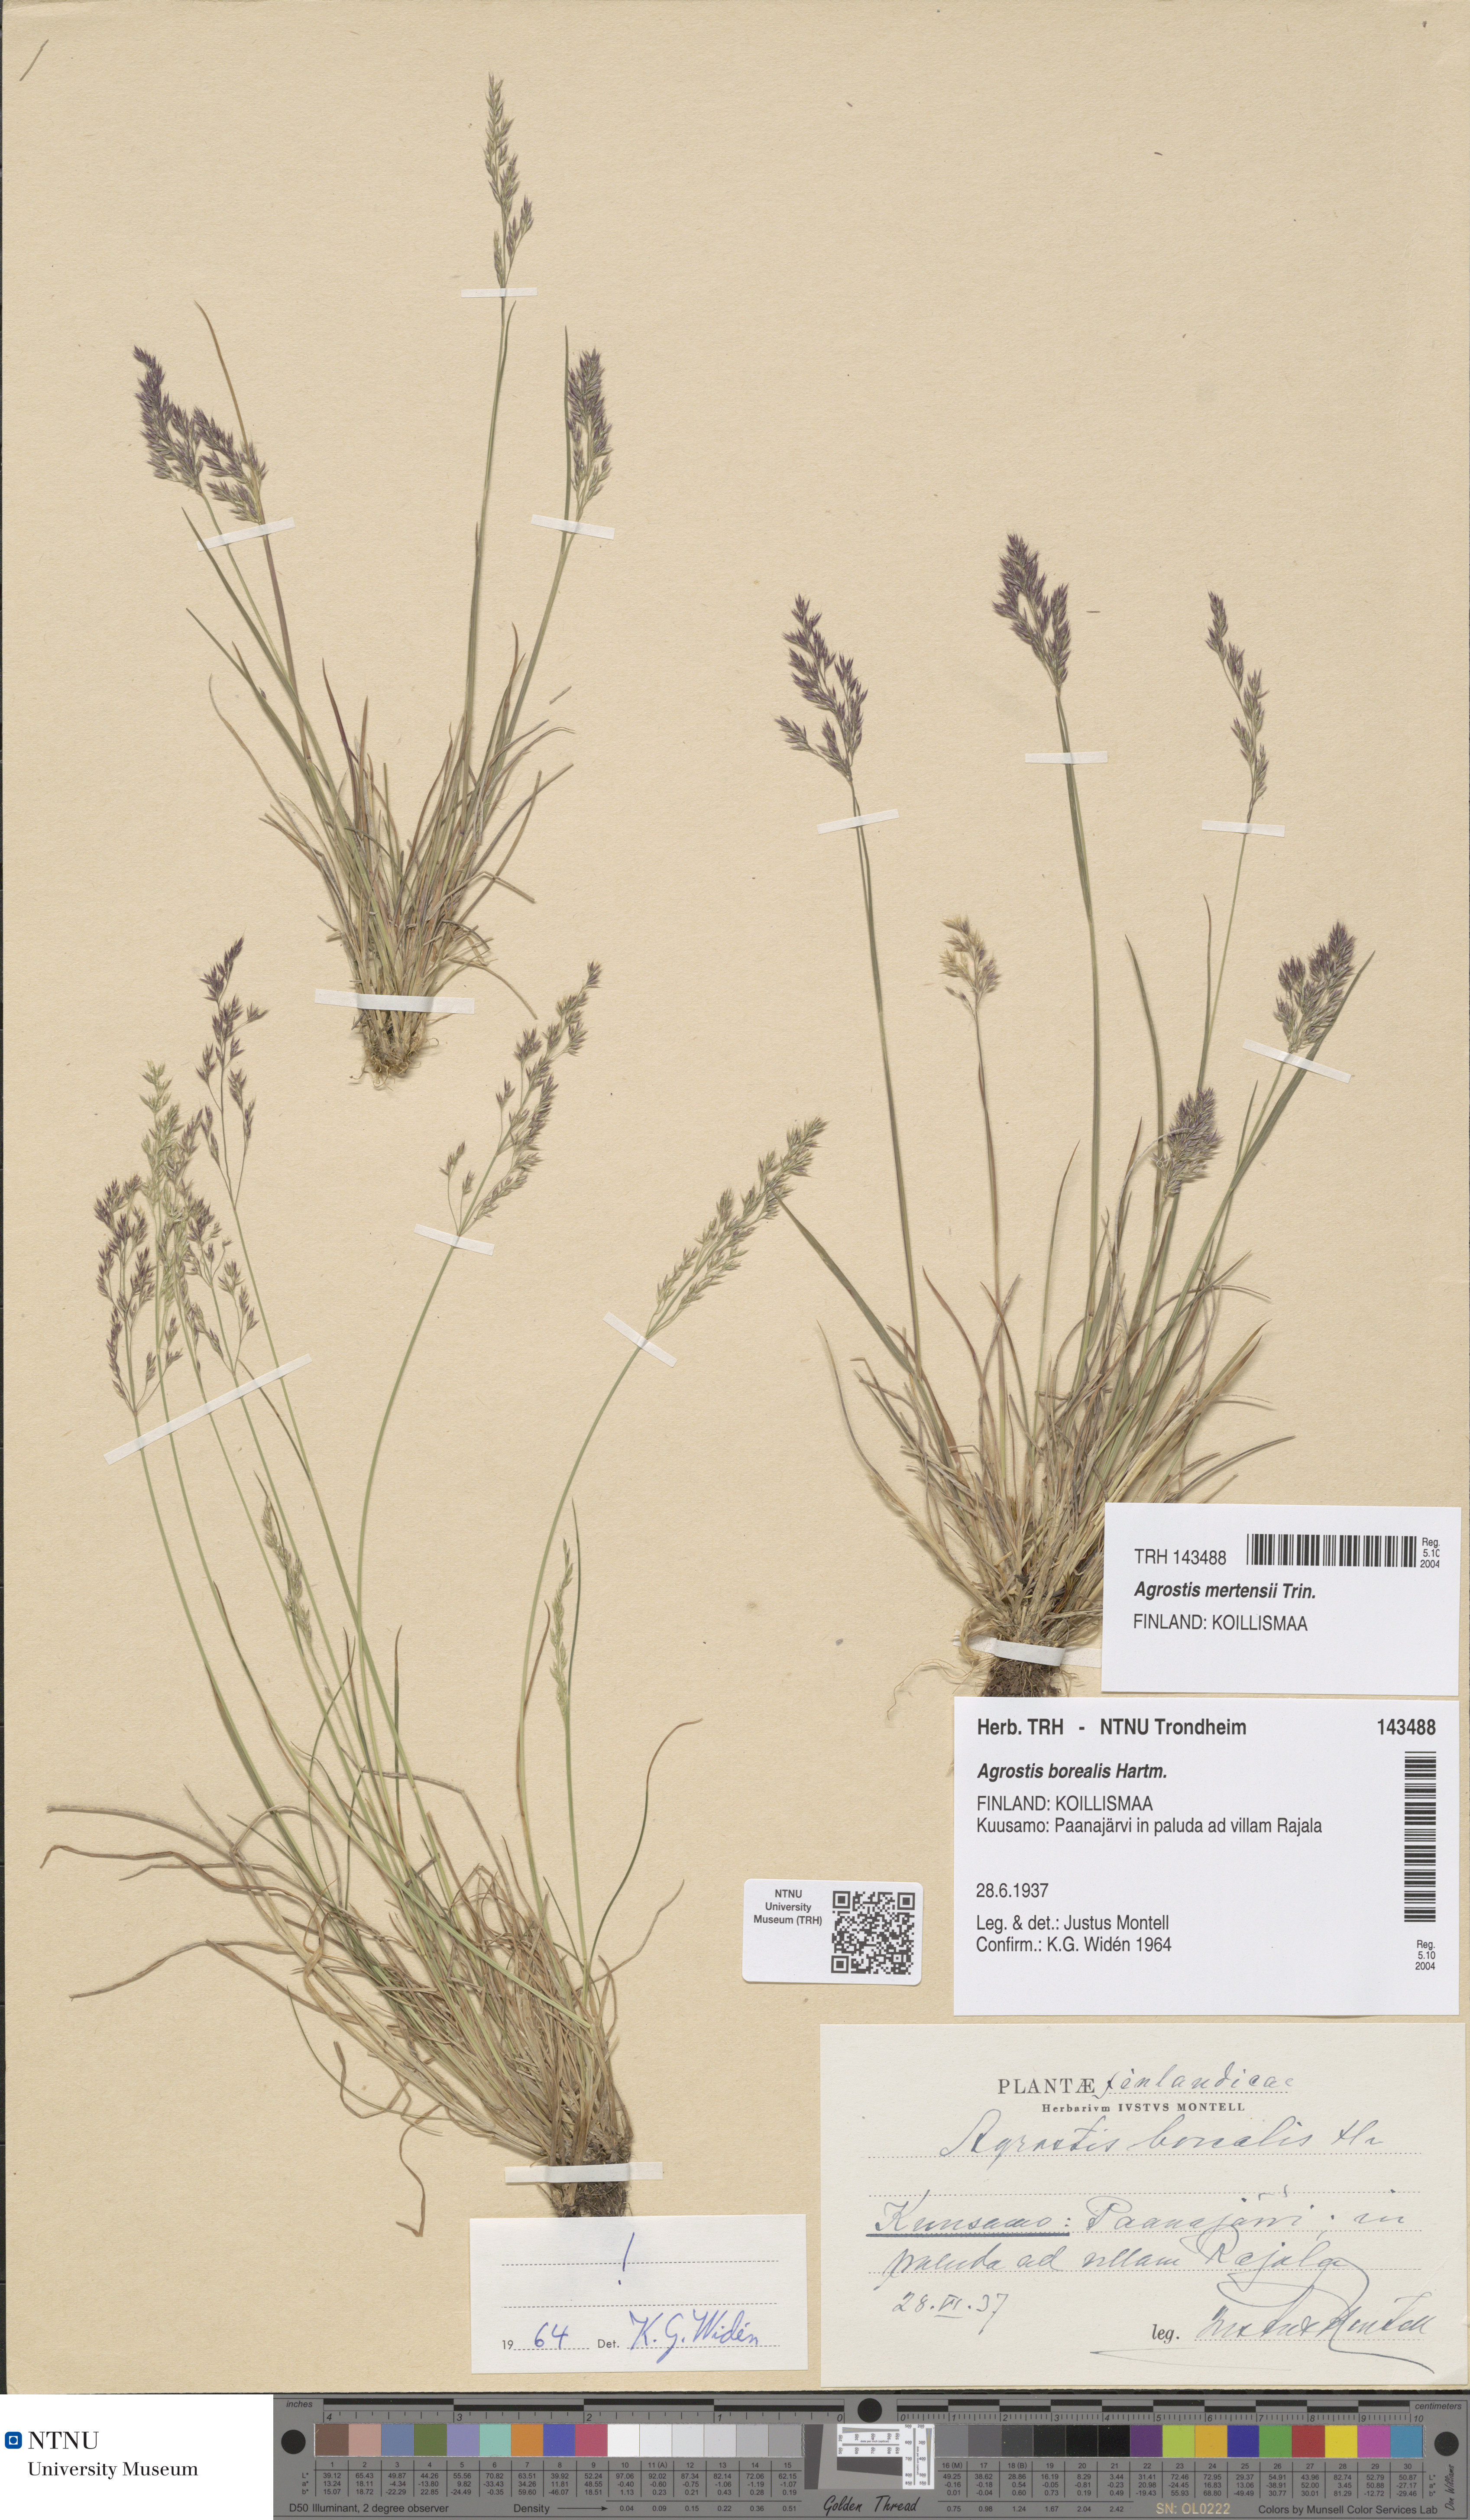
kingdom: Plantae
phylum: Tracheophyta
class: Liliopsida
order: Poales
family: Poaceae
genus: Agrostis
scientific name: Agrostis mertensii
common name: Northern bent
